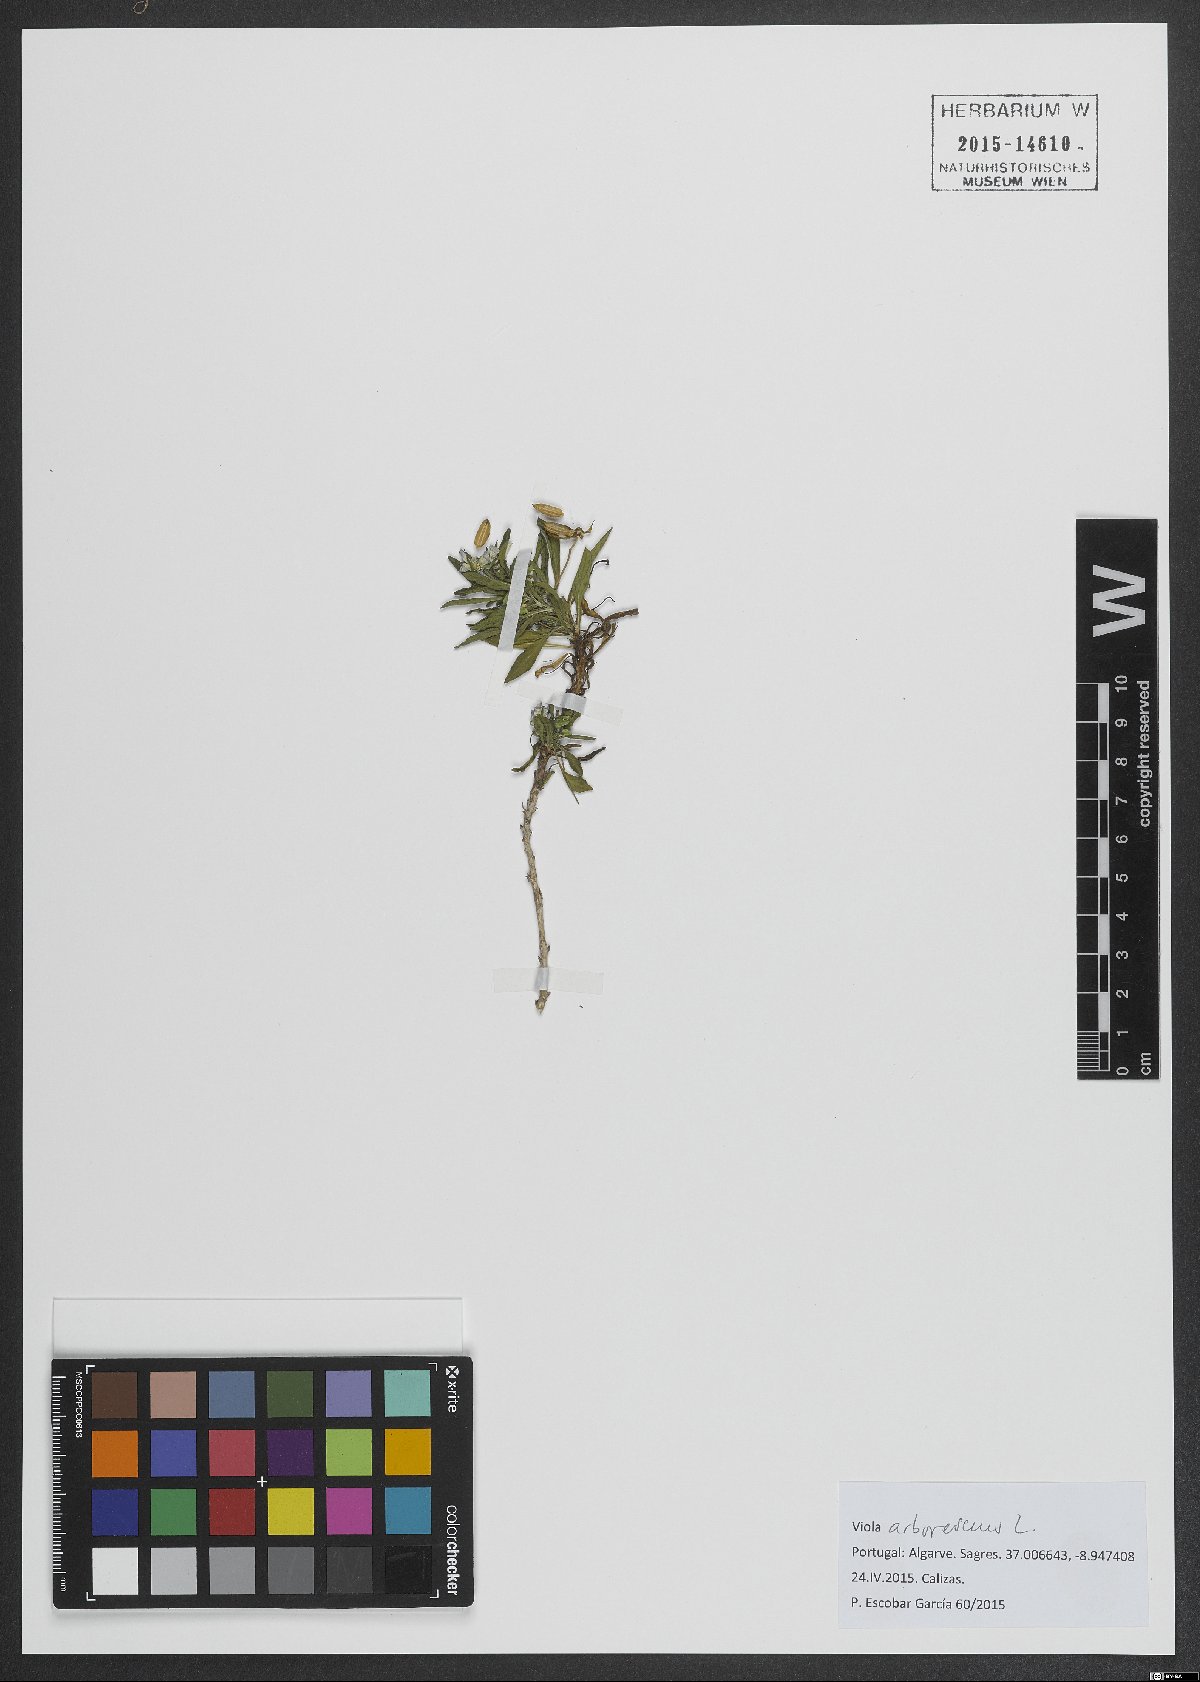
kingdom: Plantae
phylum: Tracheophyta
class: Magnoliopsida
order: Malpighiales
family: Violaceae
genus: Viola
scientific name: Viola arborescens
